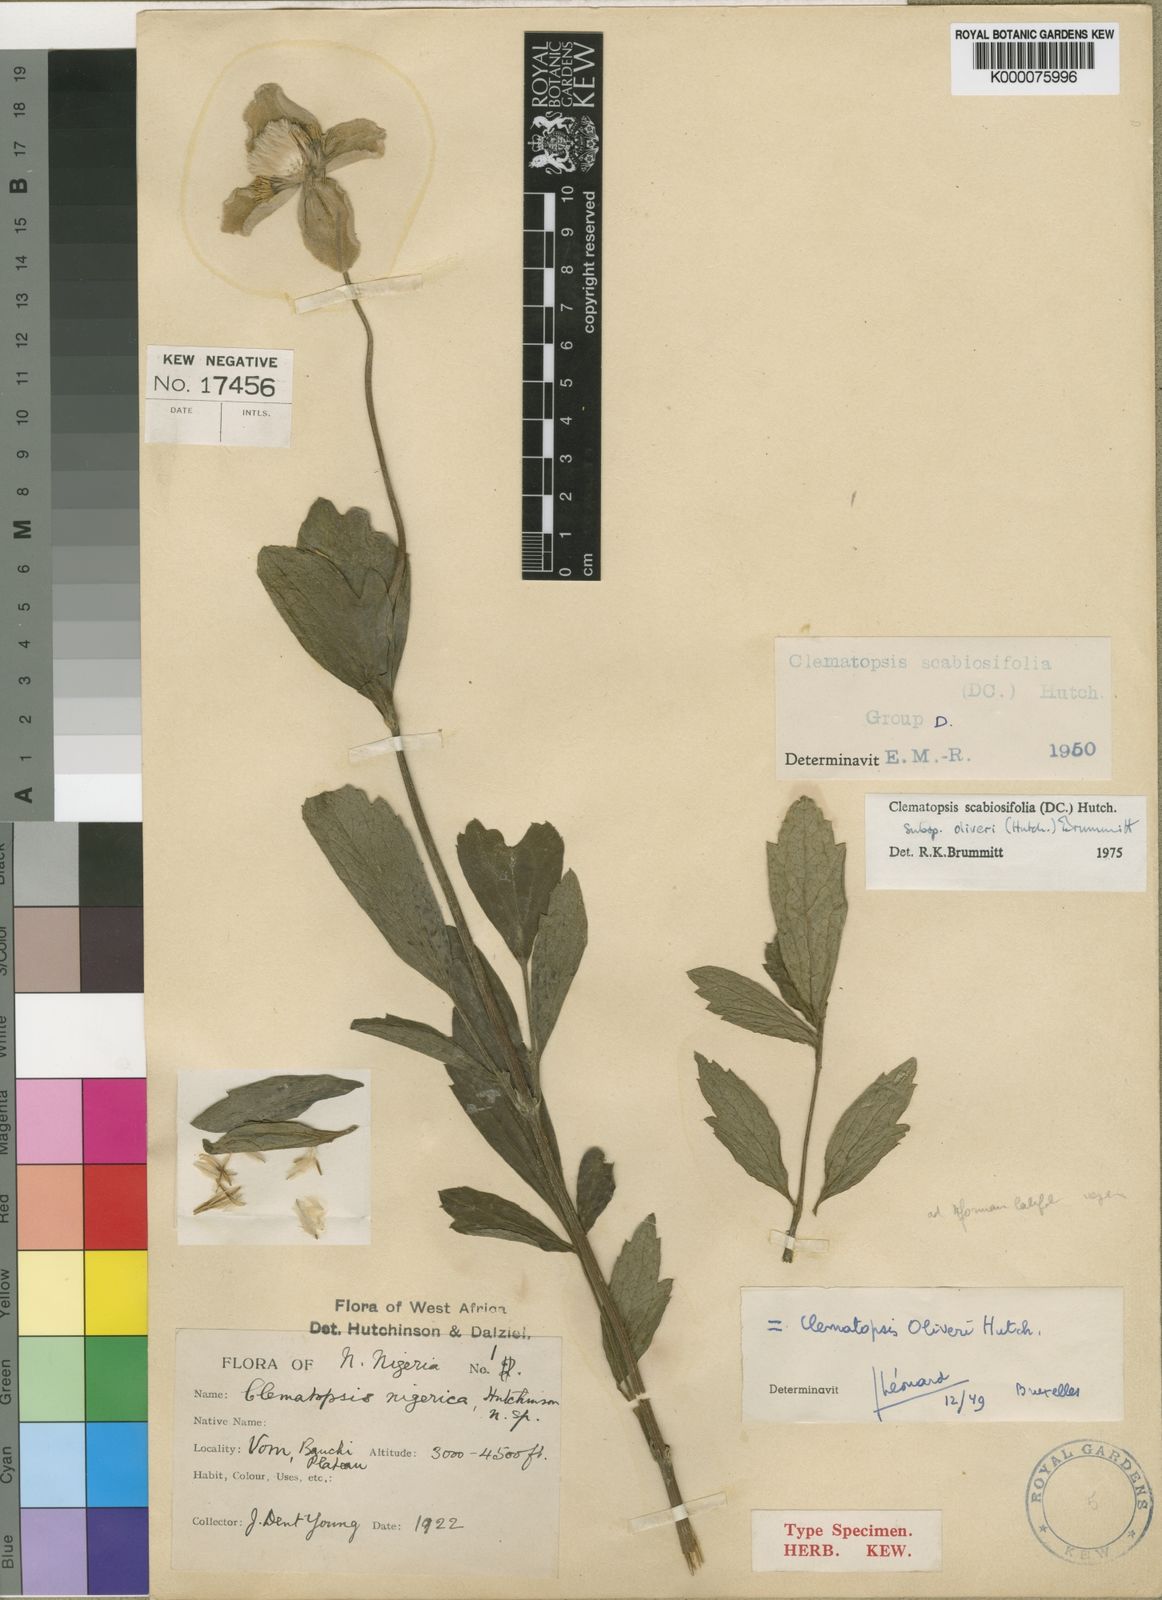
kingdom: Plantae
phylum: Tracheophyta
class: Magnoliopsida
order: Ranunculales
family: Ranunculaceae
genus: Clematis
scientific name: Clematis villosa
